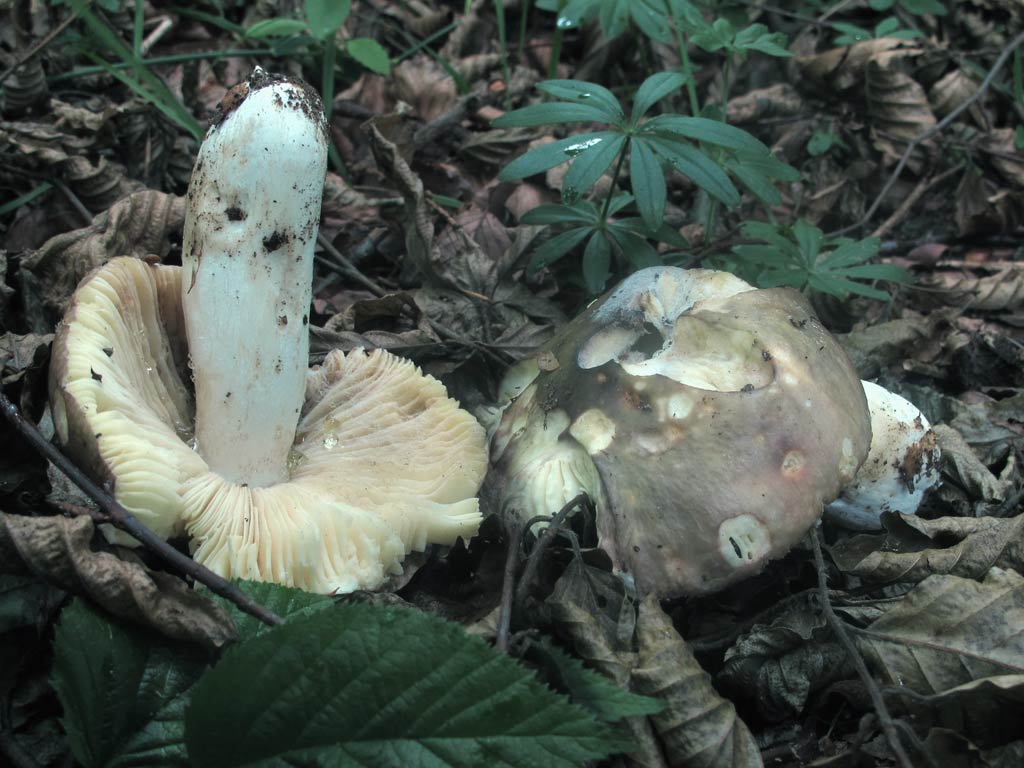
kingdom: Fungi
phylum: Basidiomycota
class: Agaricomycetes
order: Russulales
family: Russulaceae
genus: Russula
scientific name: Russula romellii
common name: romells skørhat
